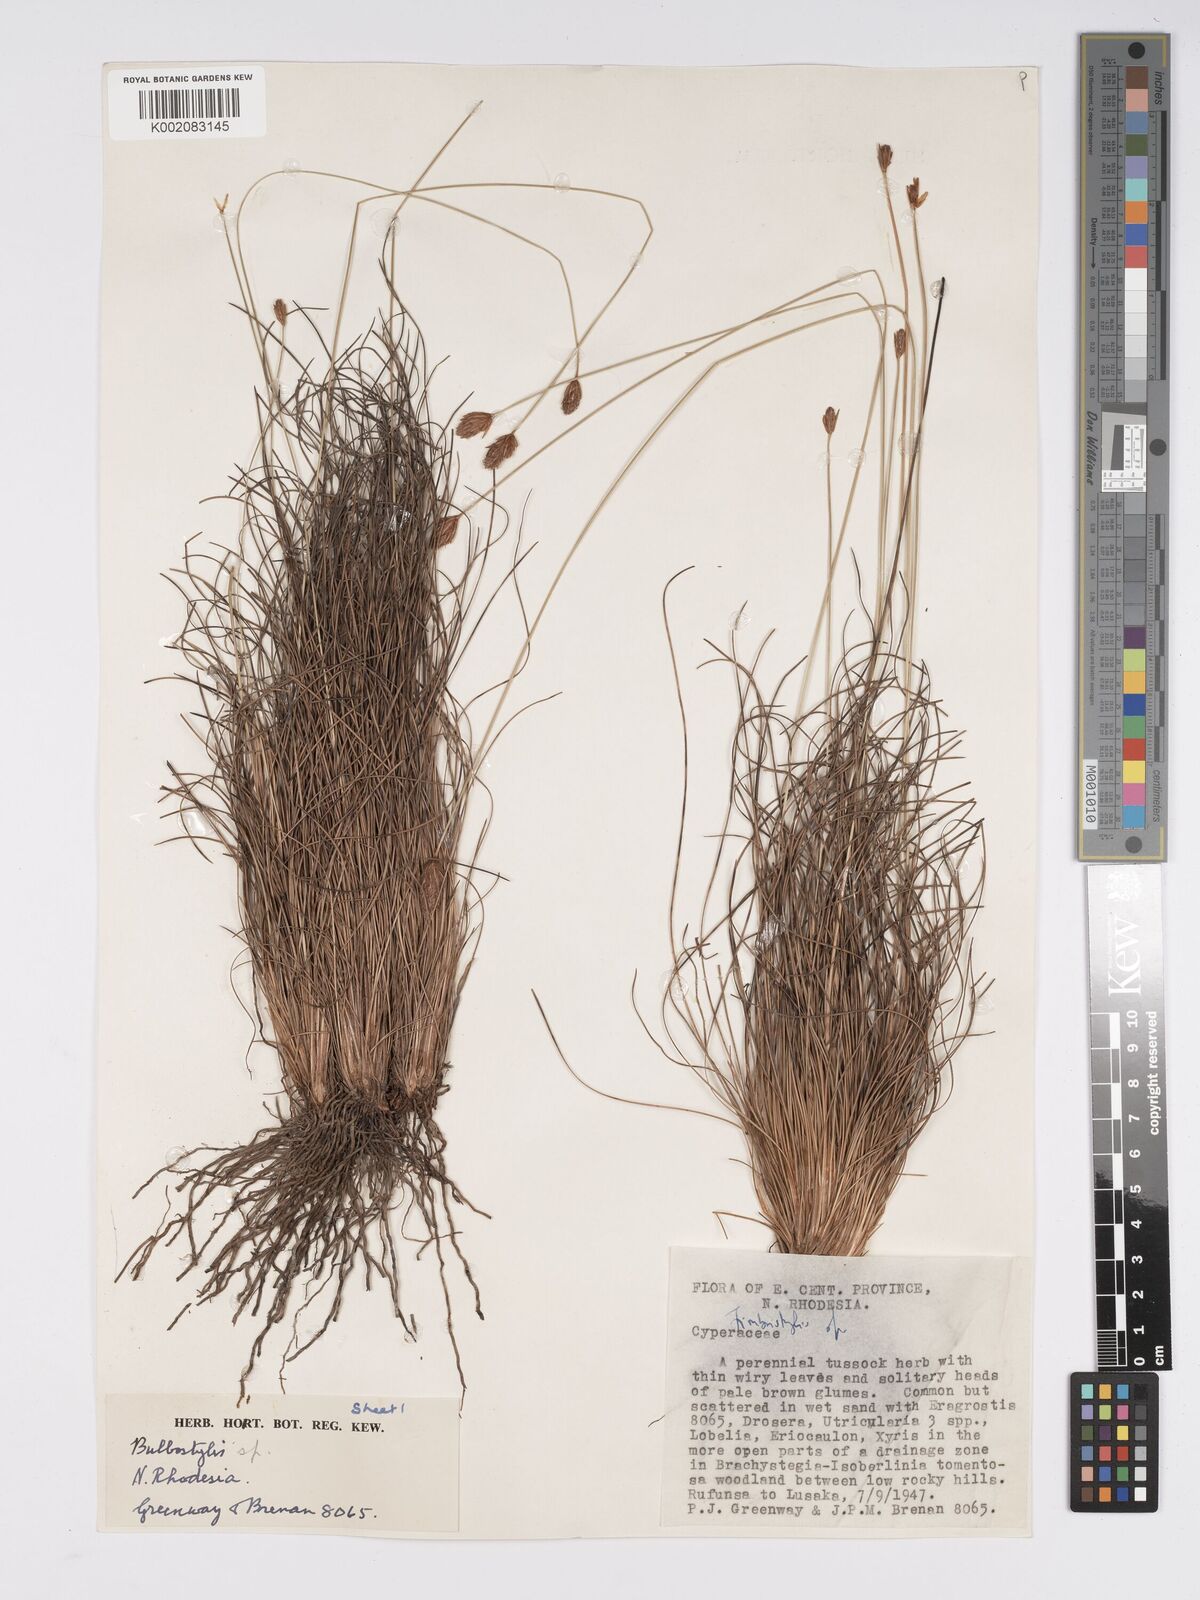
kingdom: Plantae
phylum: Tracheophyta
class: Liliopsida
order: Poales
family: Cyperaceae
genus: Bulbostylis
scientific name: Bulbostylis schoenoides
